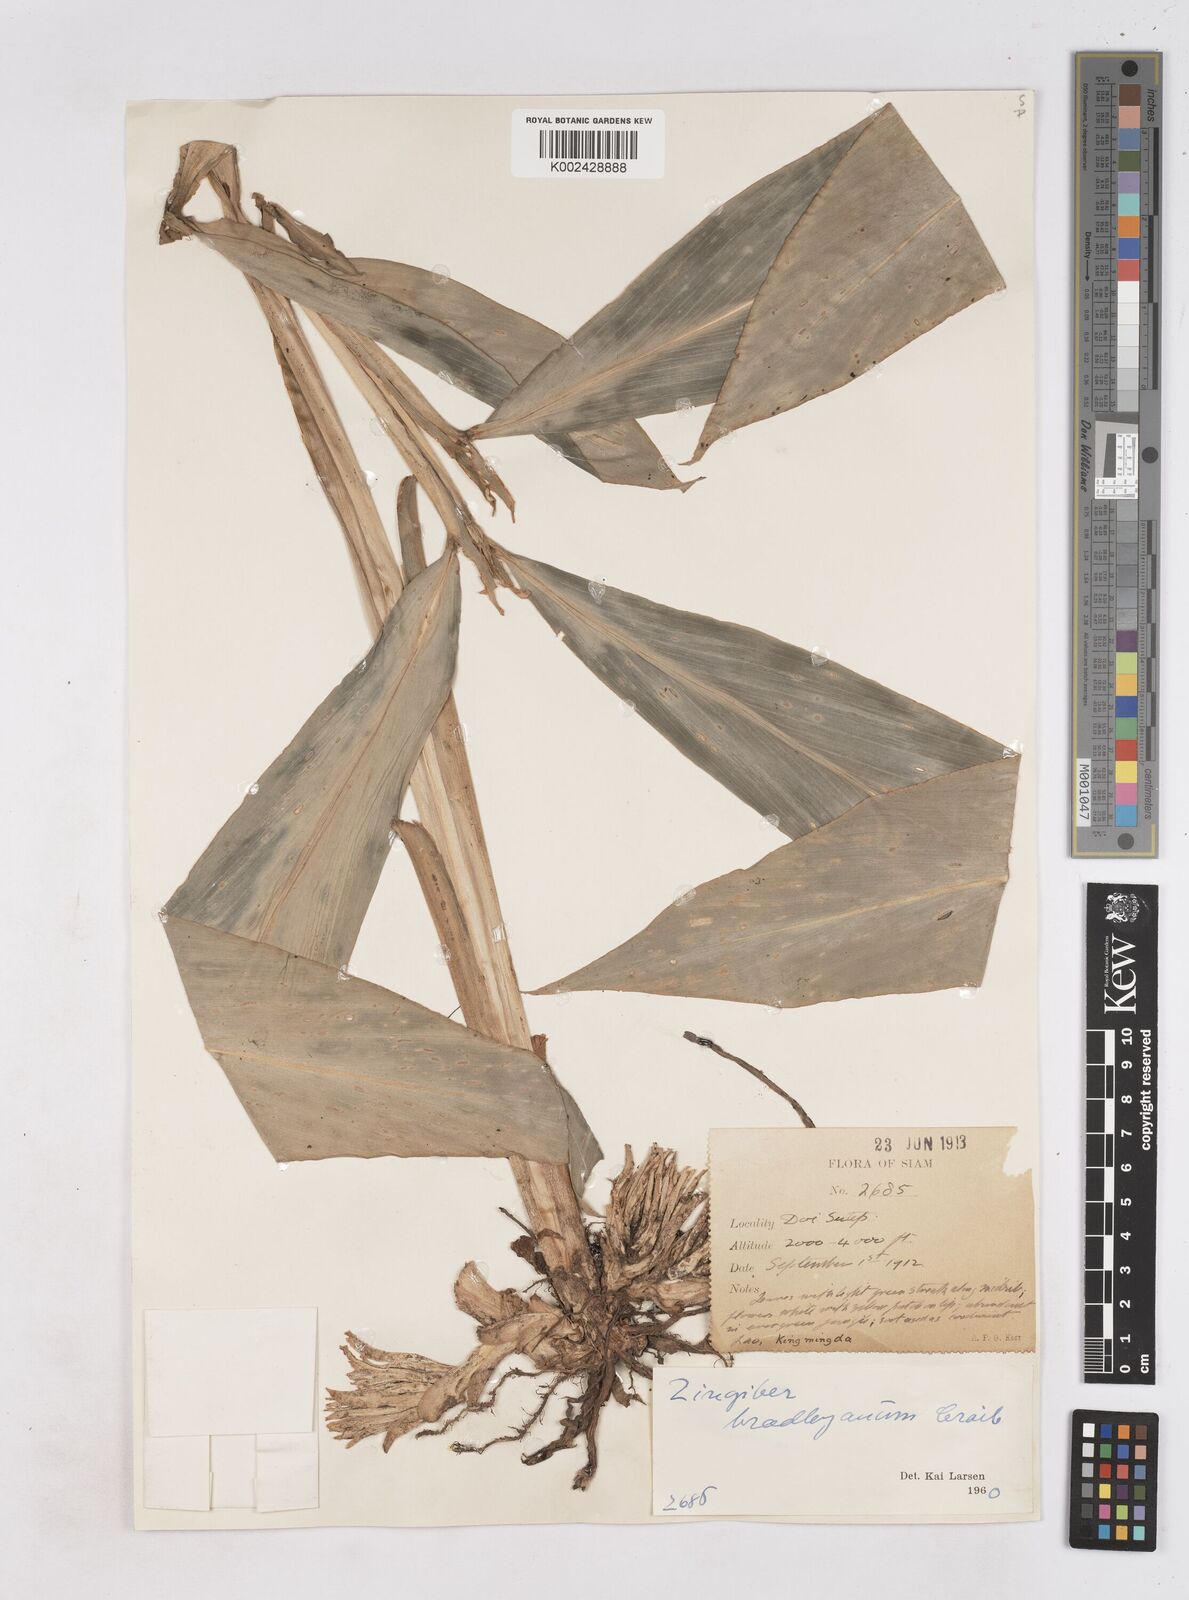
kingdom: Plantae
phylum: Tracheophyta
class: Liliopsida
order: Zingiberales
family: Zingiberaceae
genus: Zingiber
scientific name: Zingiber bradleyanum
